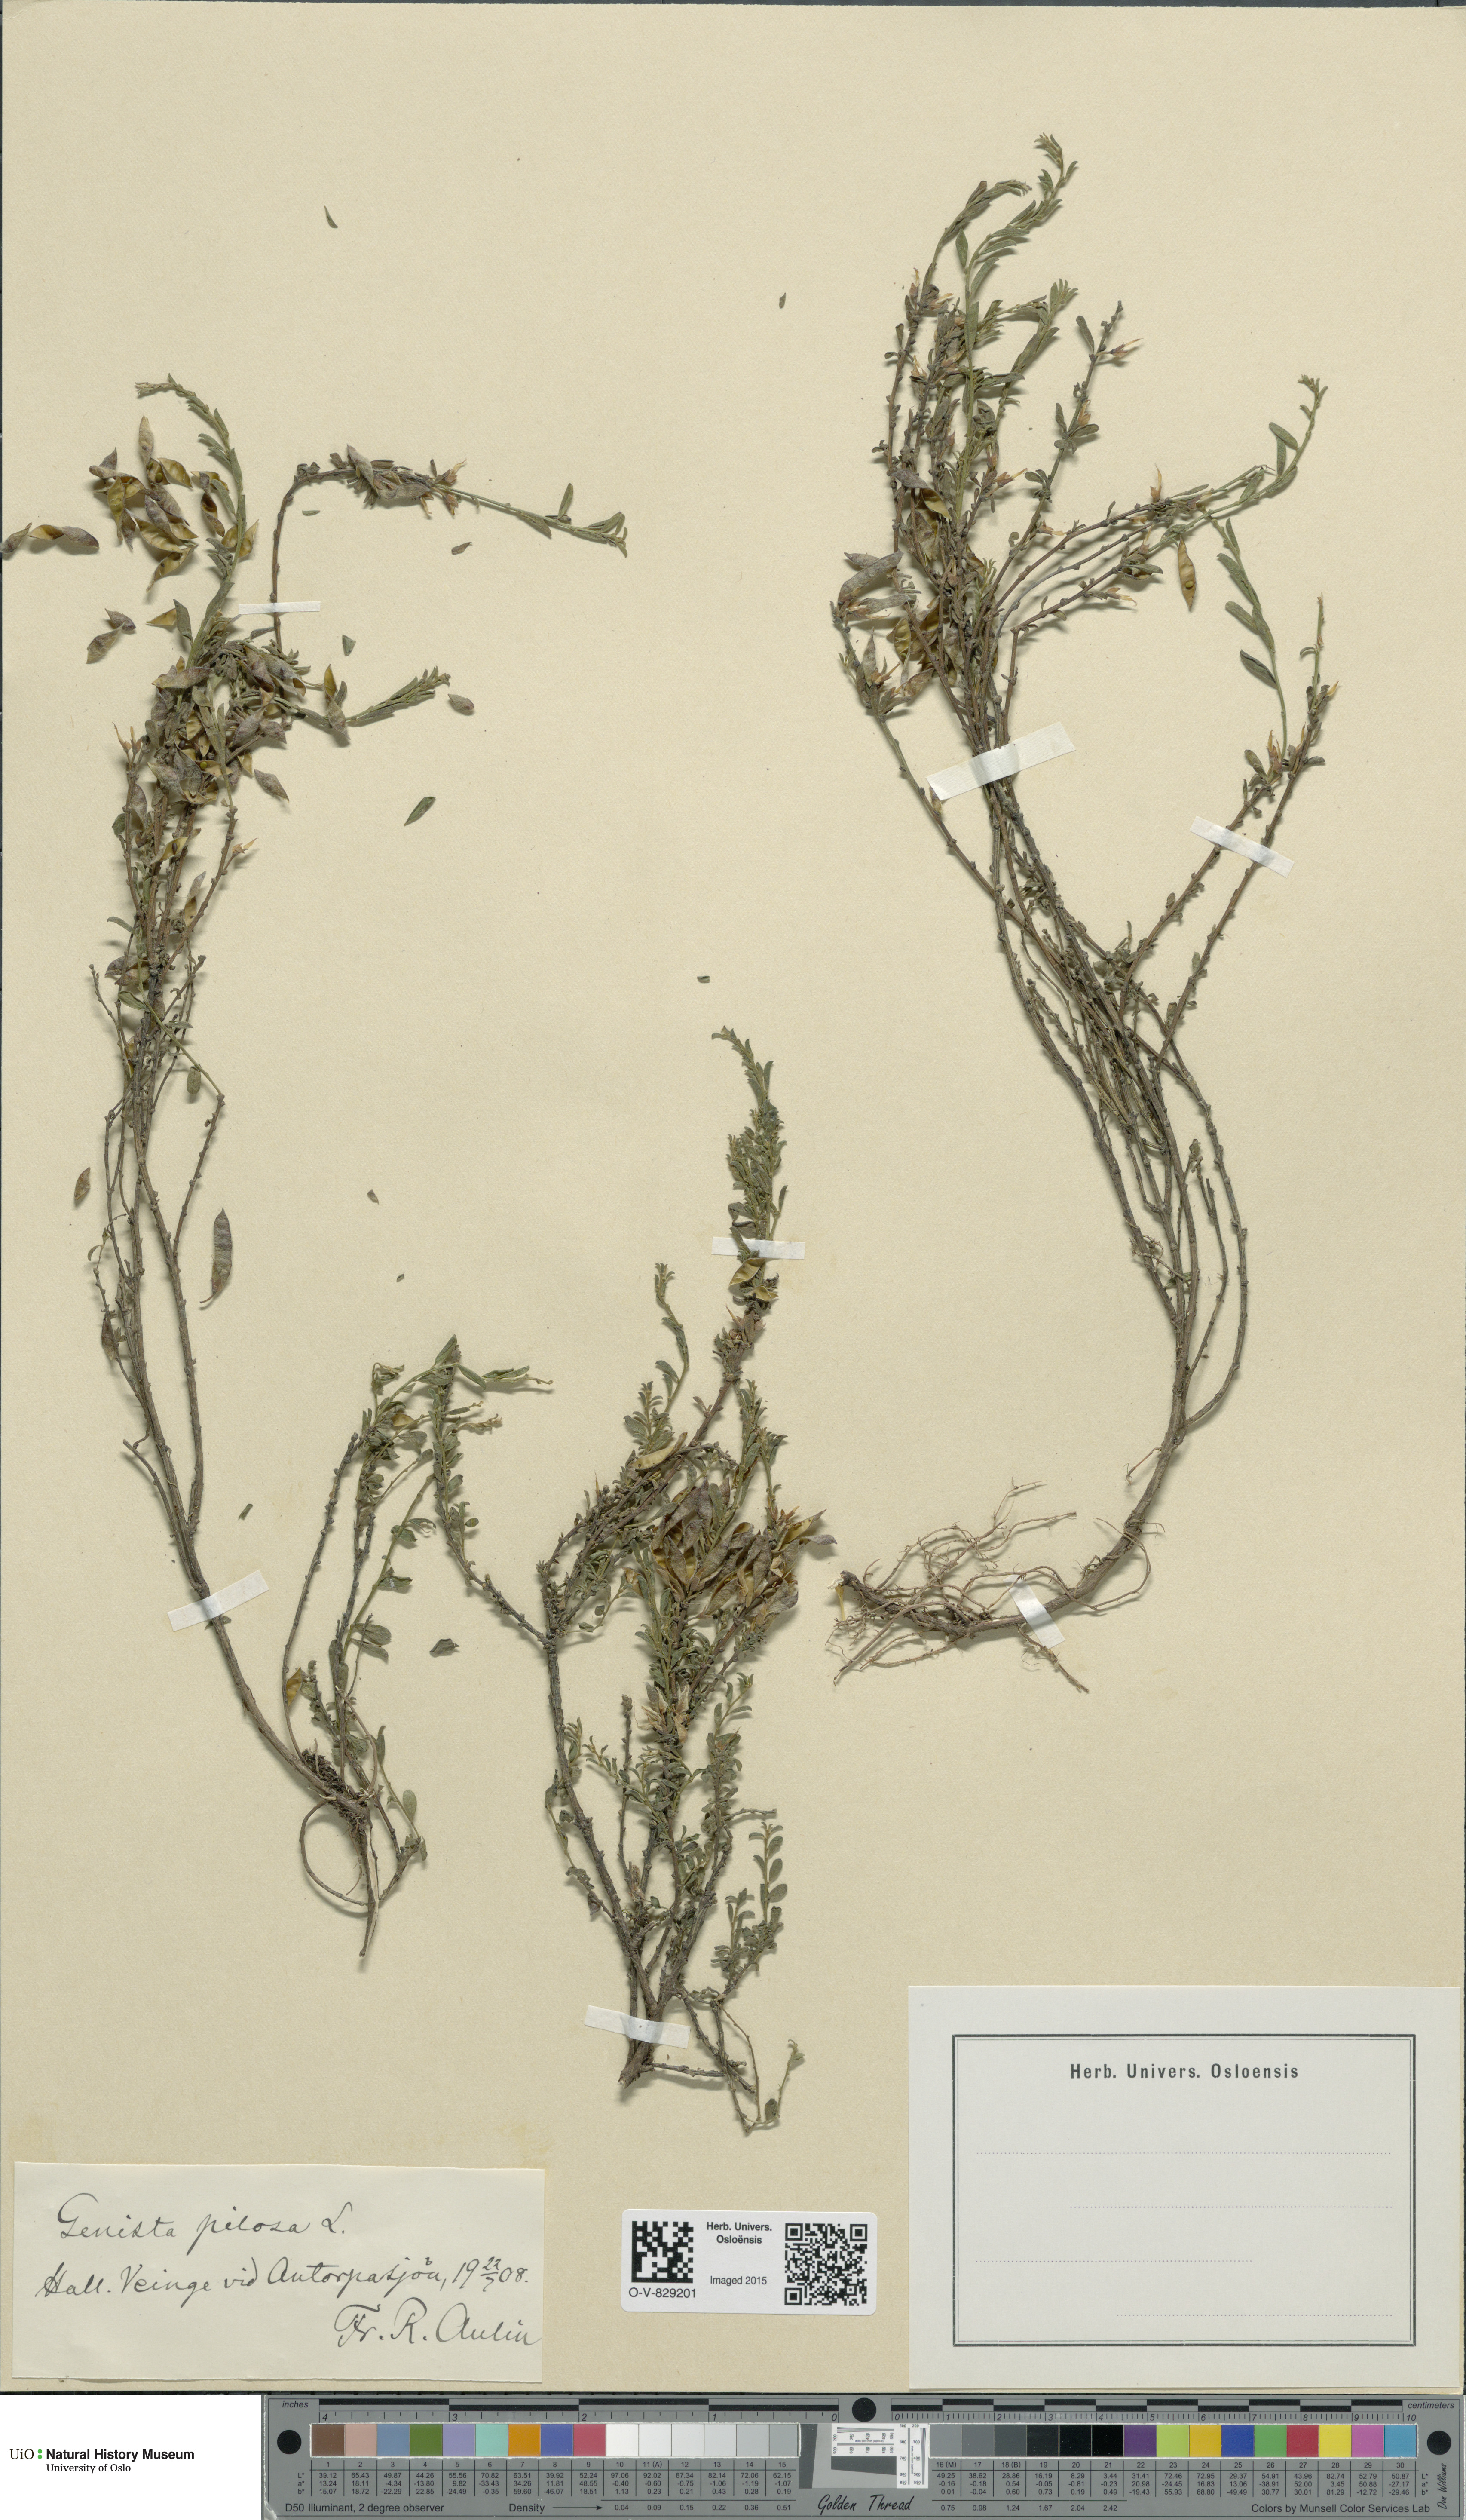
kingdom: Plantae
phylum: Tracheophyta
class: Magnoliopsida
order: Fabales
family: Fabaceae
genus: Genista
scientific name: Genista pilosa
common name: Hairy greenweed
